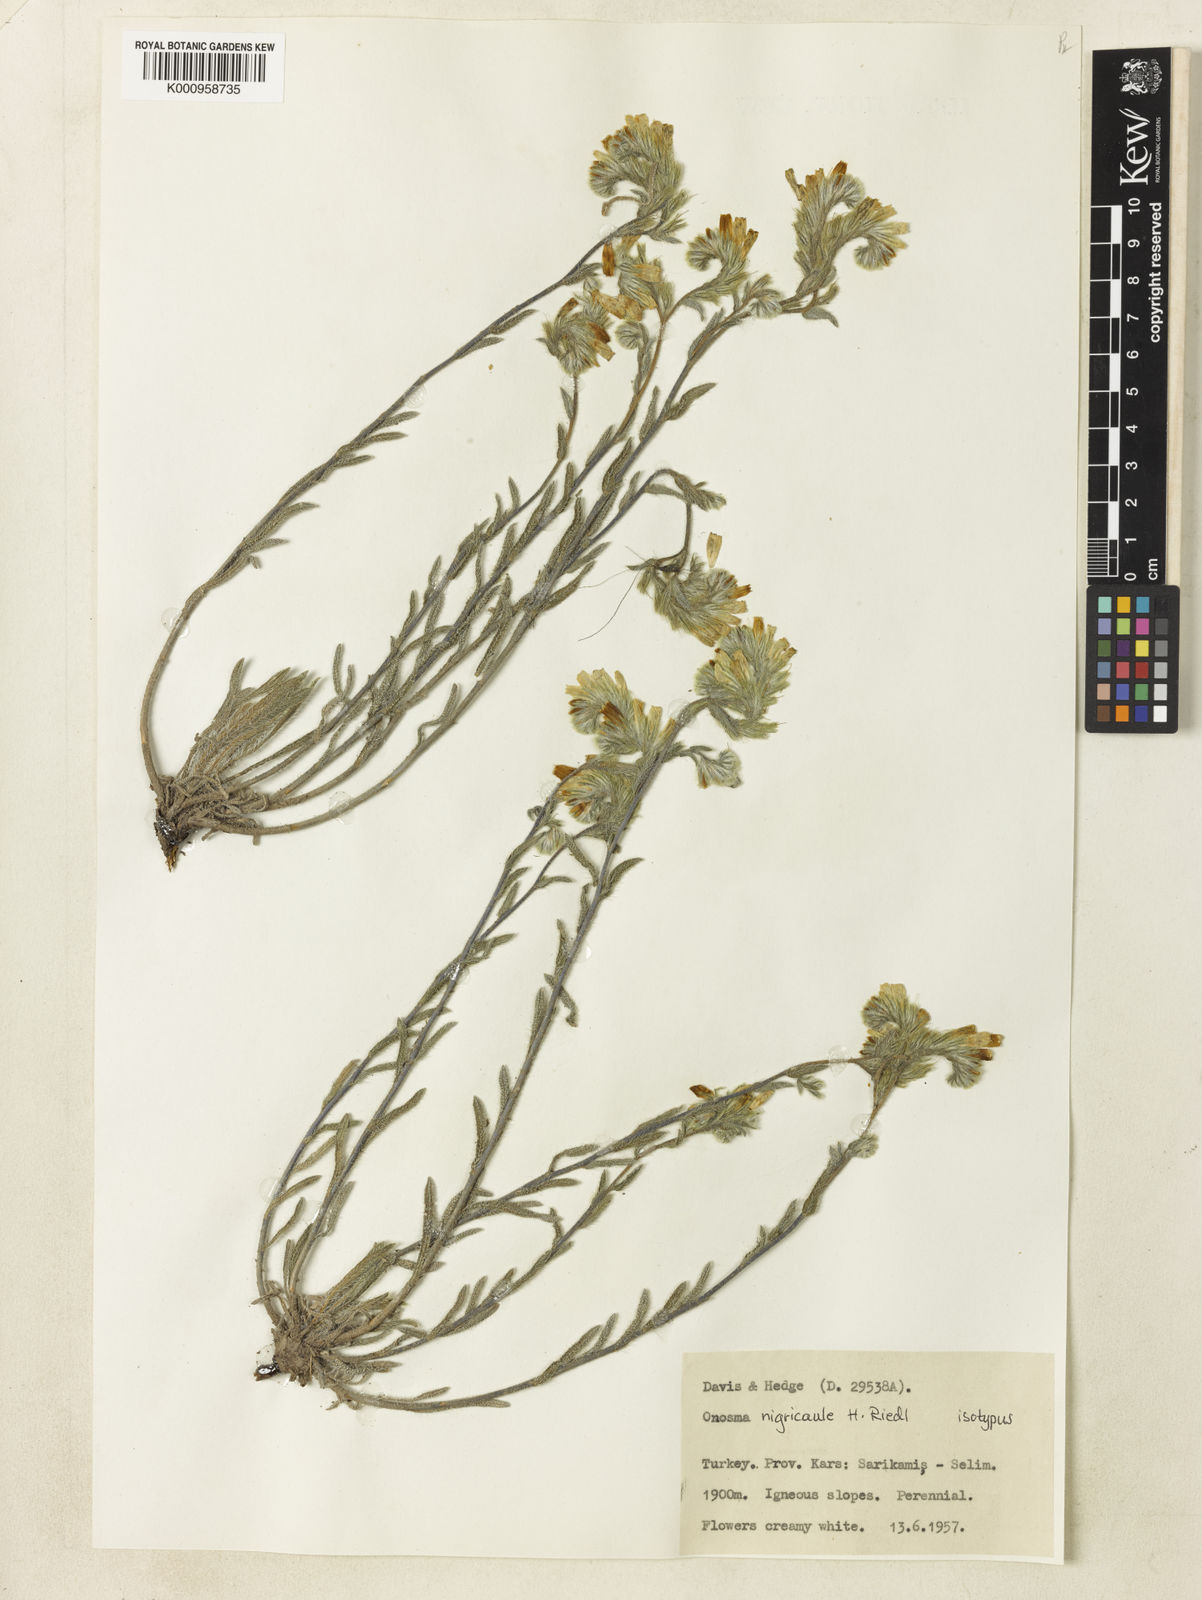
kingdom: Plantae
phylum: Tracheophyta
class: Magnoliopsida
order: Boraginales
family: Boraginaceae
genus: Onosma
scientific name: Onosma nigricaulis
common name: Black-stemmed goldendrop
